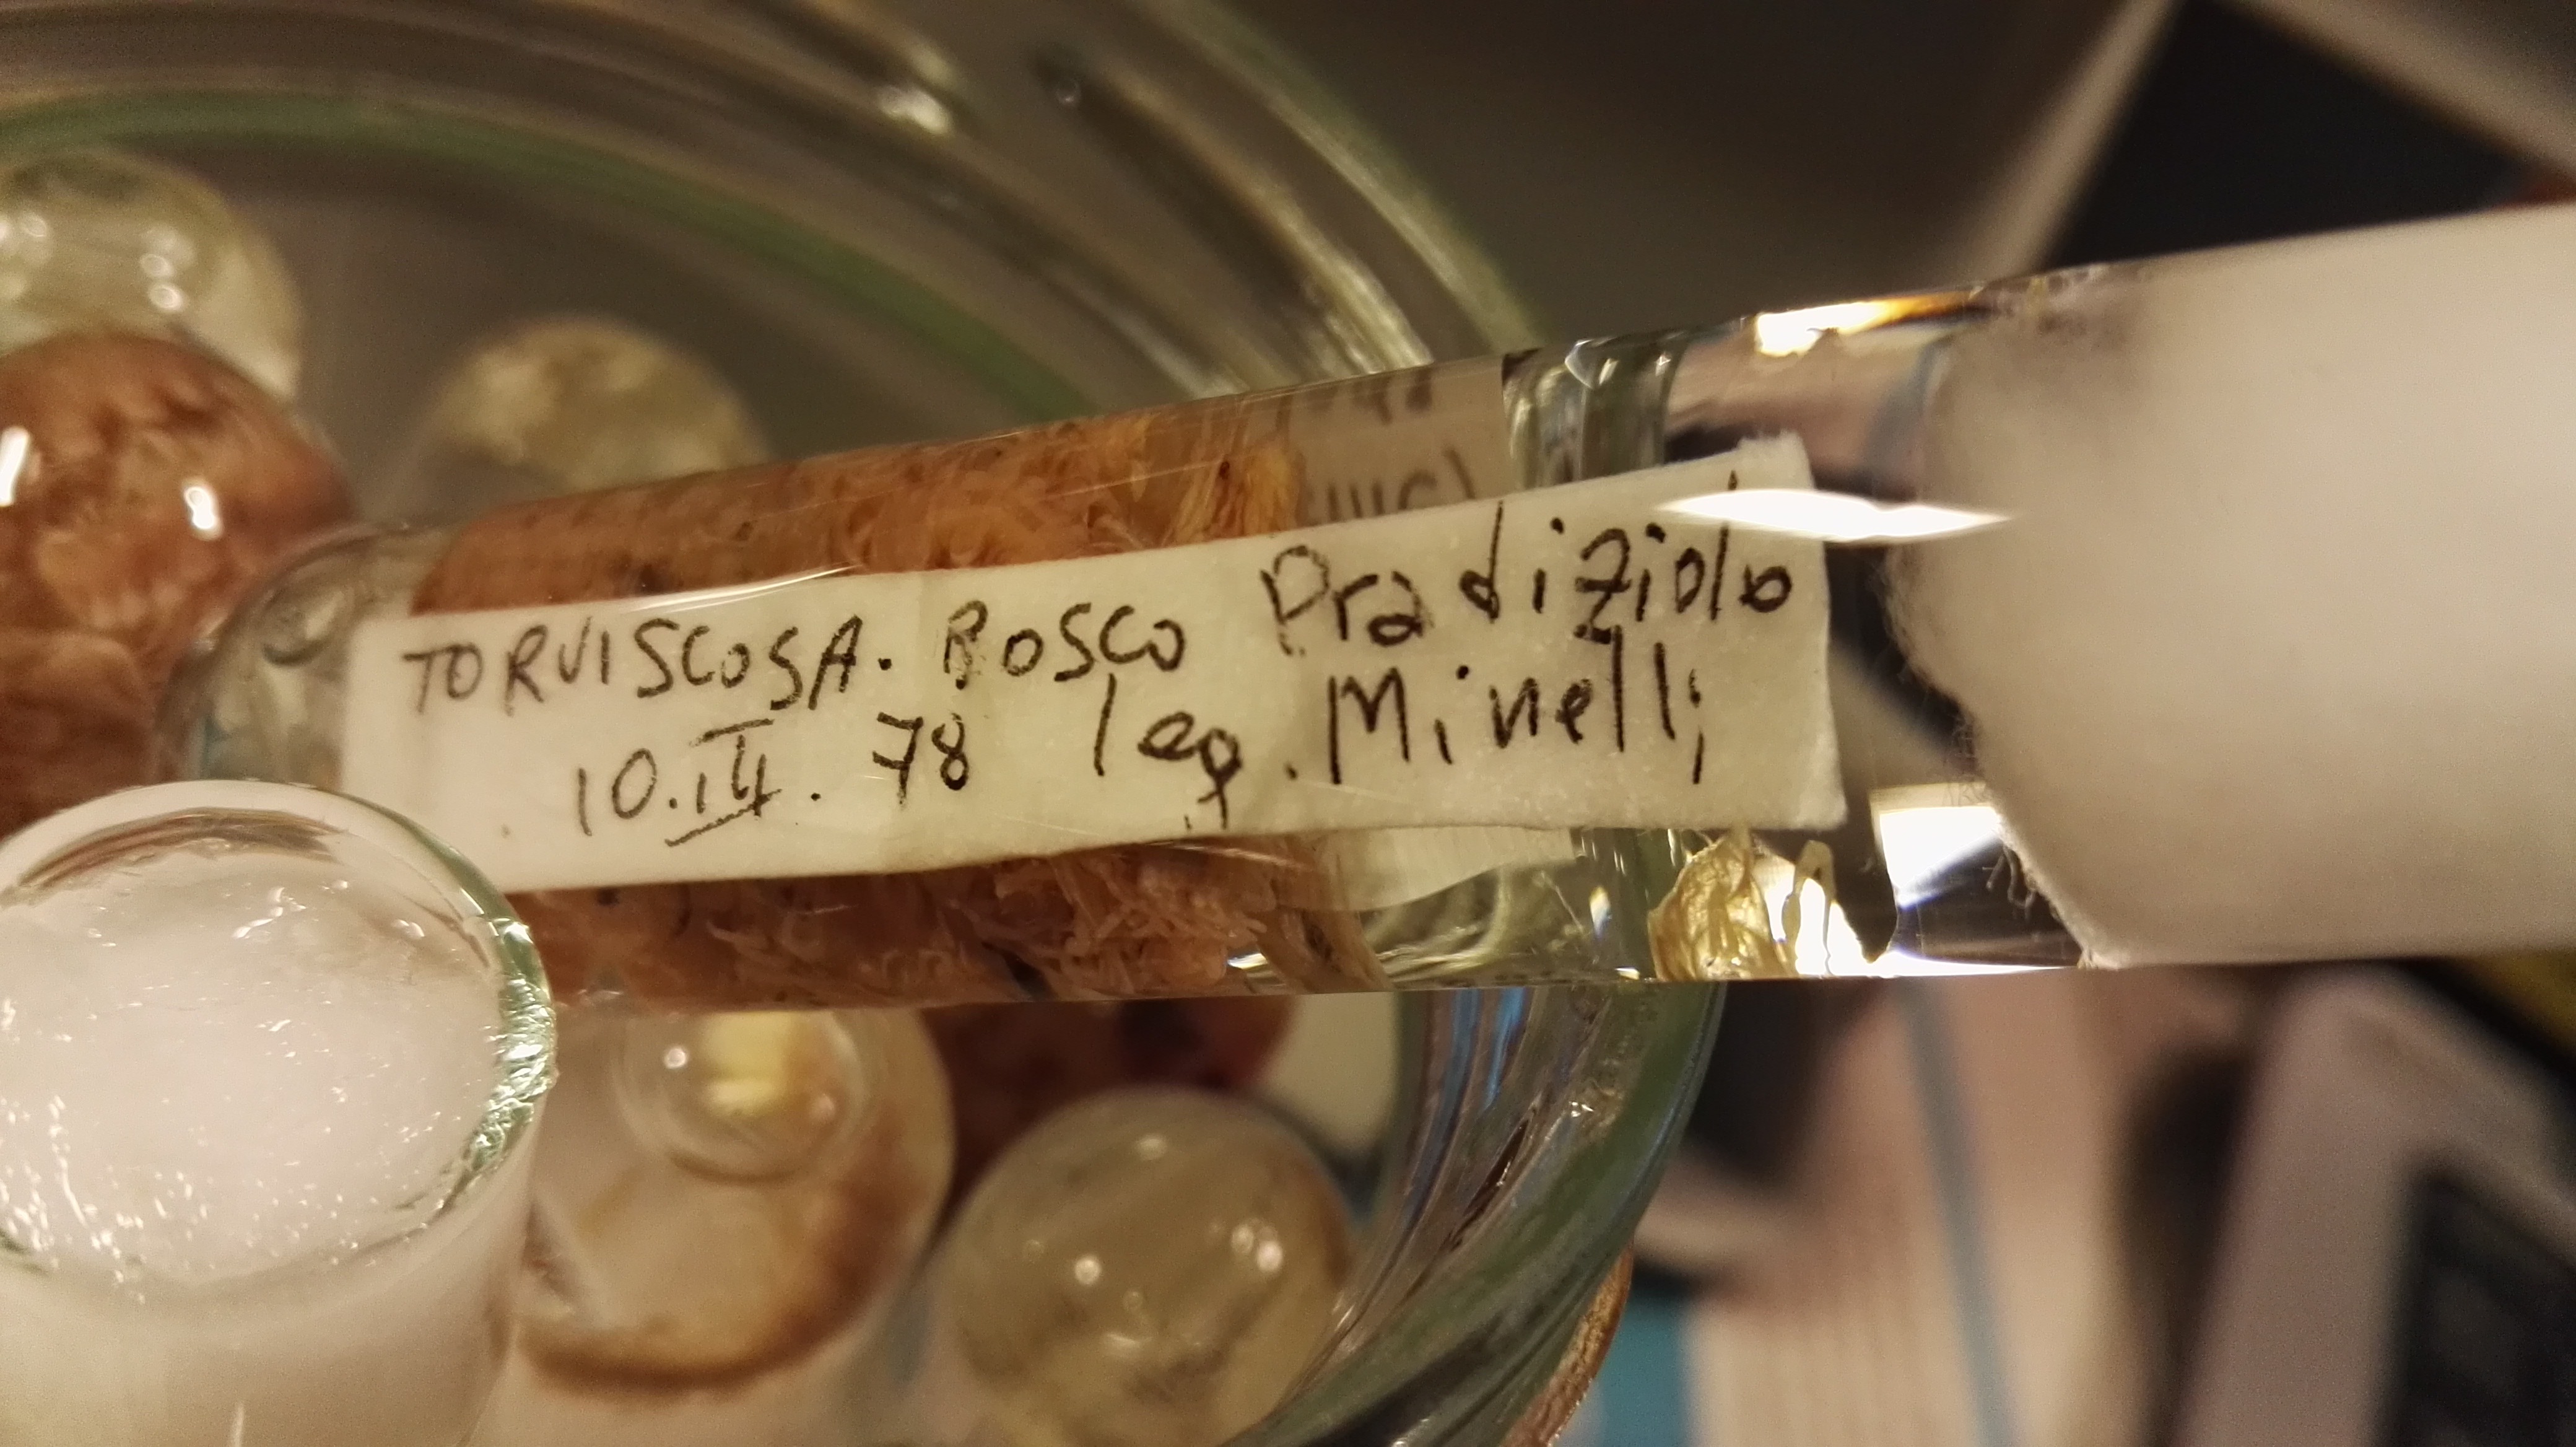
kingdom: Animalia
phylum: Arthropoda
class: Diplopoda
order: Polydesmida
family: Polydesmidae
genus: Polydesmus
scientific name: Polydesmus complanatus
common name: Flat-backed millipede
